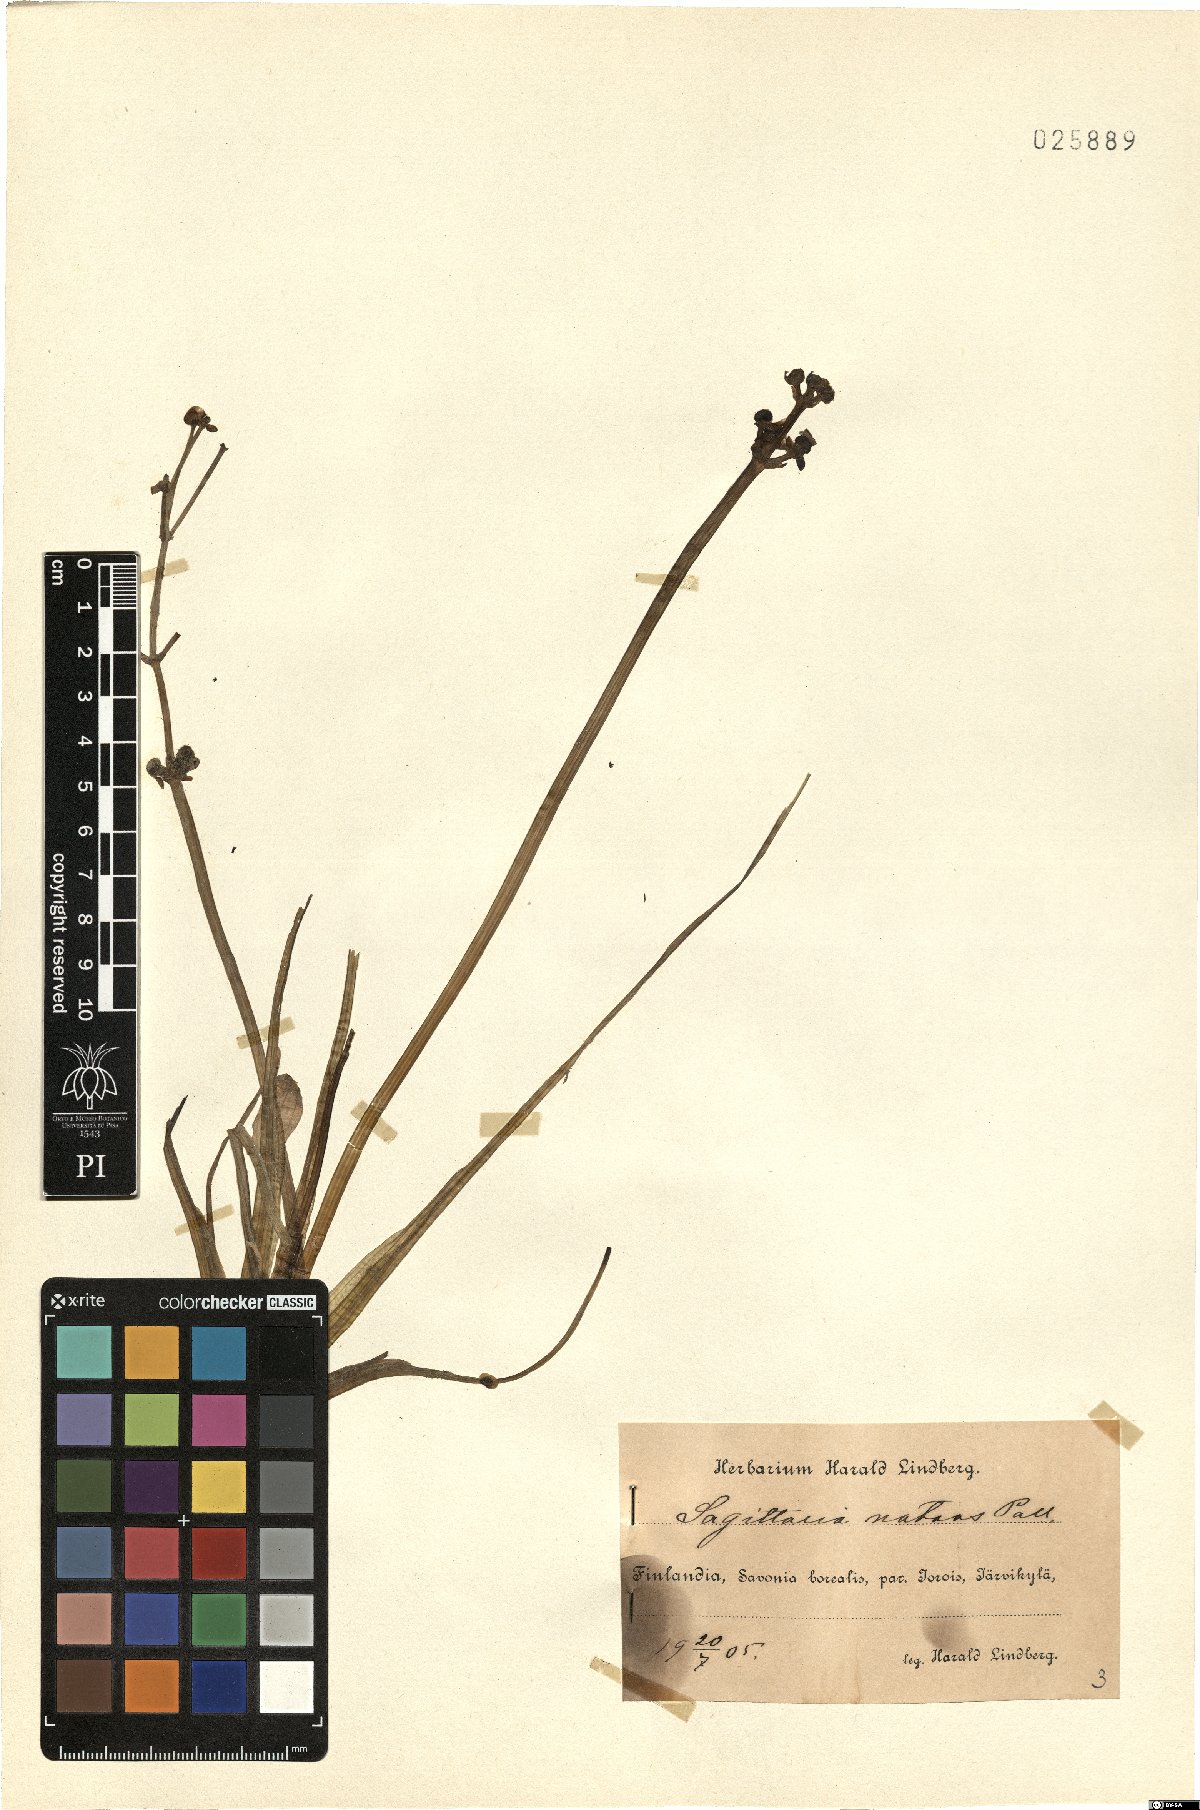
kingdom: Plantae
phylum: Tracheophyta
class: Liliopsida
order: Alismatales
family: Alismataceae
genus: Sagittaria
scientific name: Sagittaria natans
